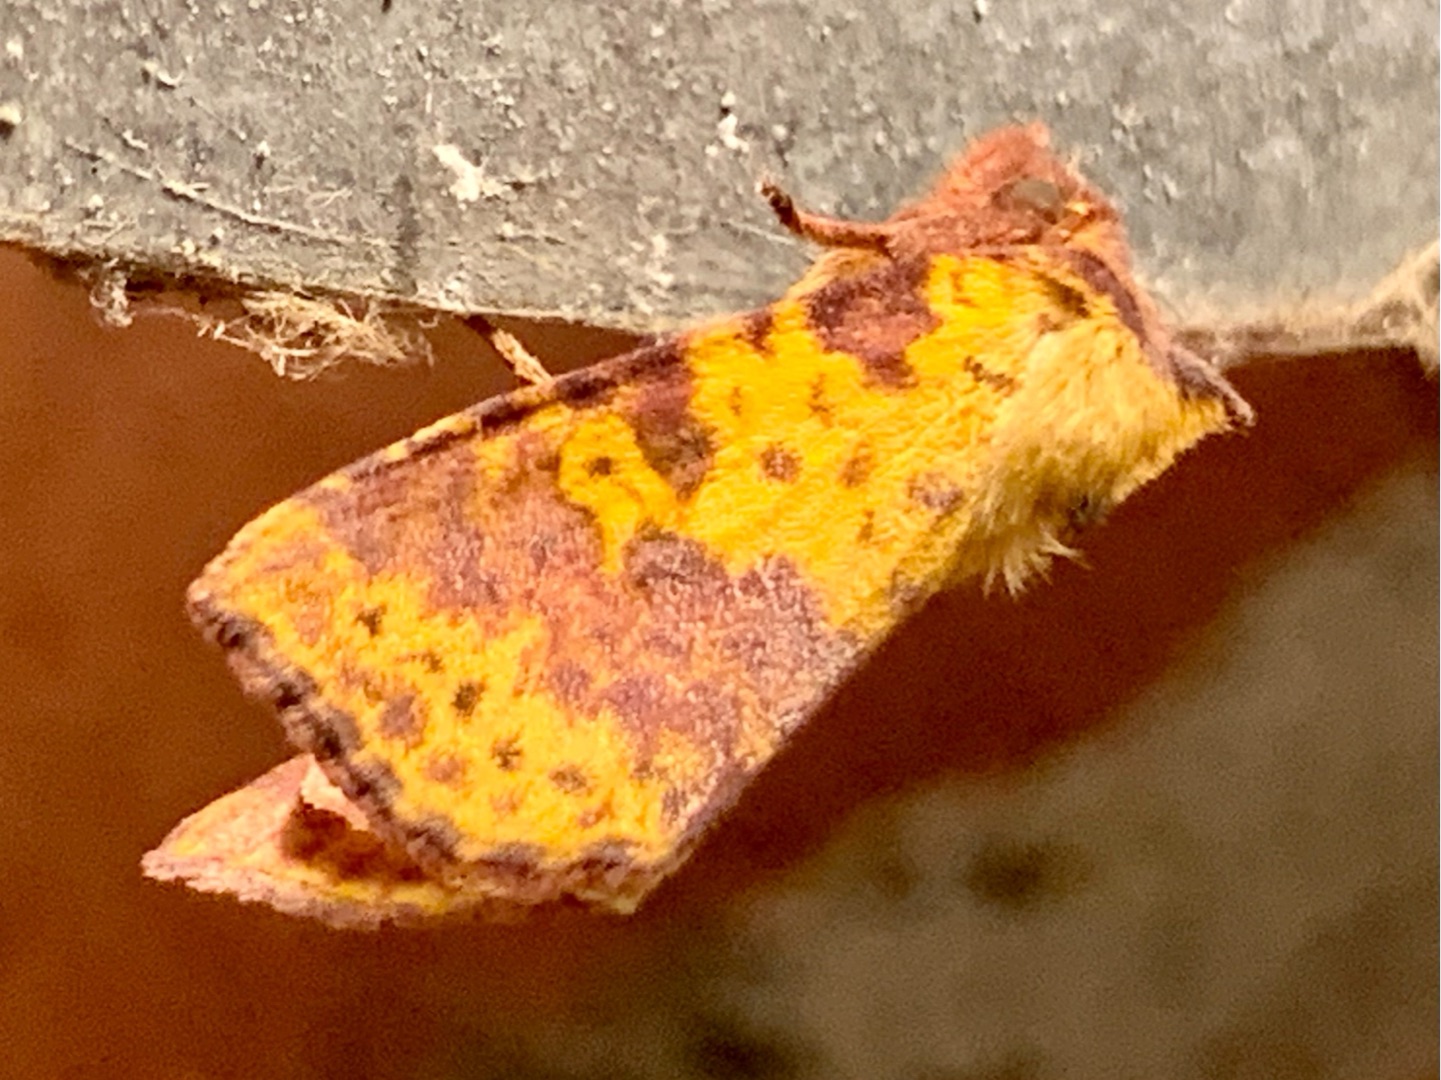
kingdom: Animalia
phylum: Arthropoda
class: Insecta
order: Lepidoptera
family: Noctuidae
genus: Xanthia
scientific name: Xanthia togata
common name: Toga-septemberugle
